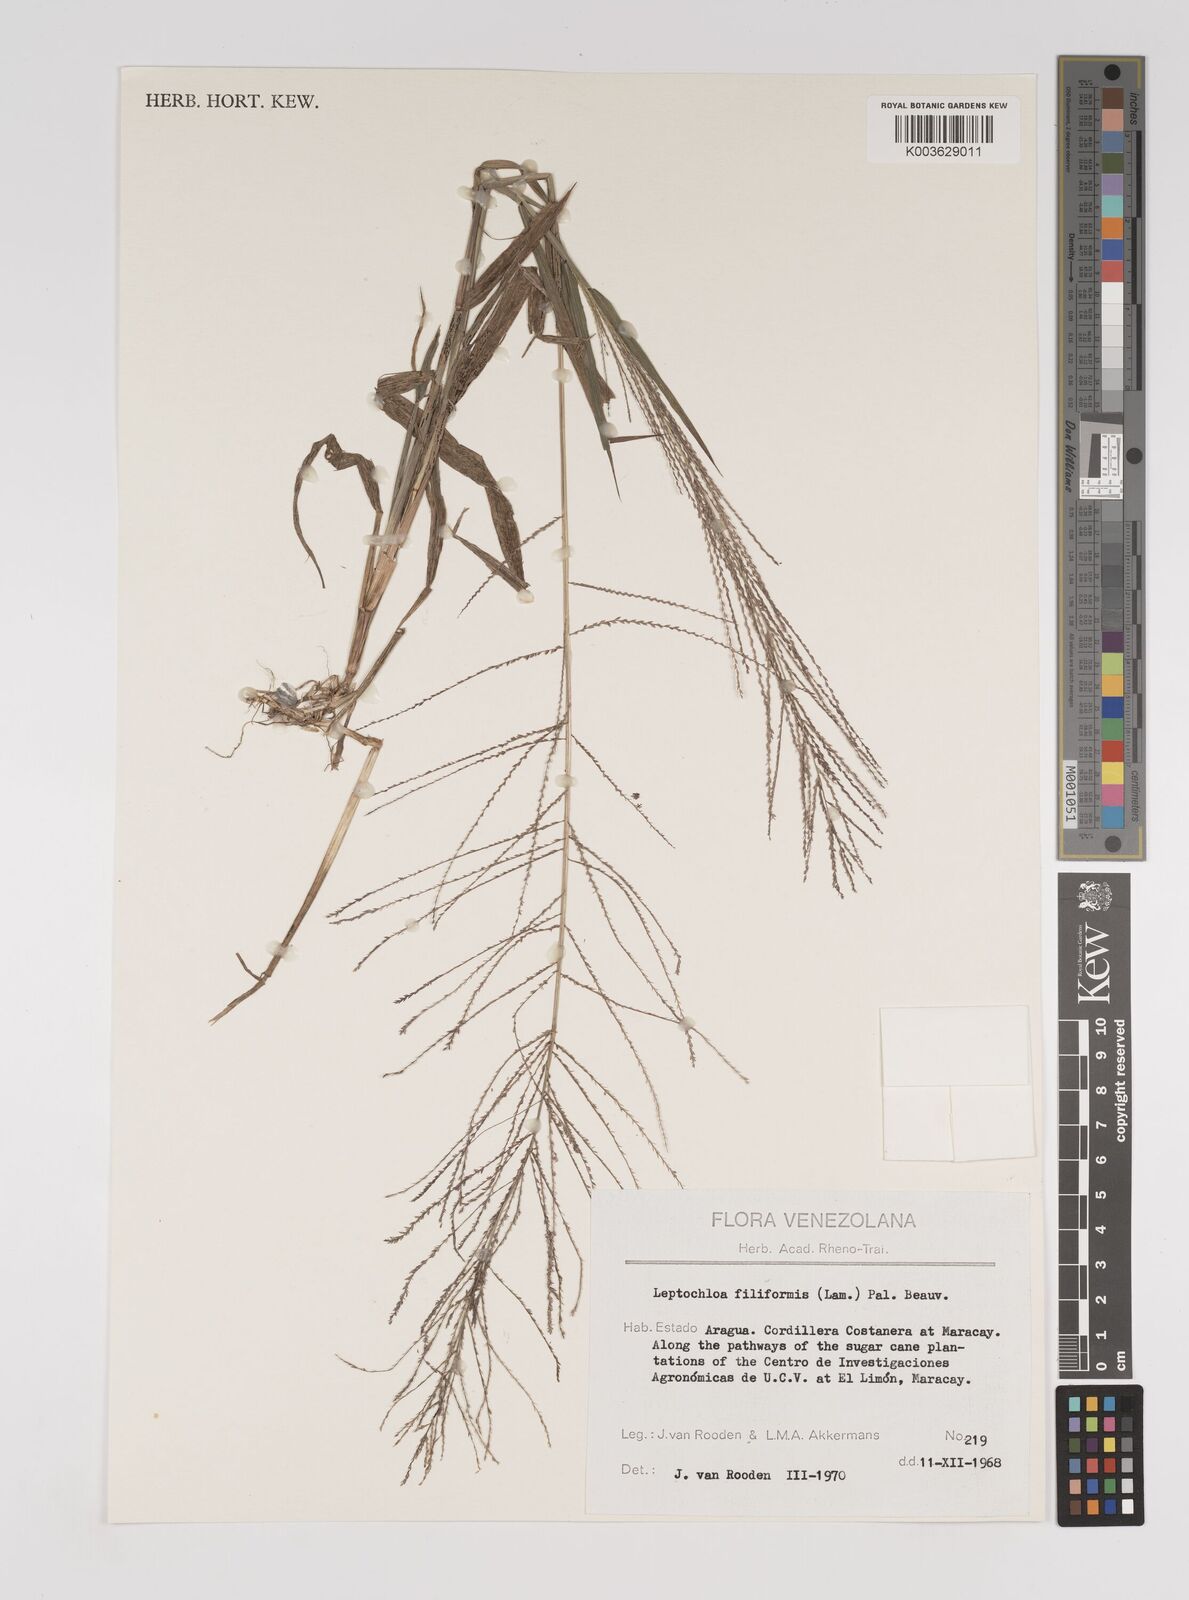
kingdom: Plantae
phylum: Tracheophyta
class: Liliopsida
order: Poales
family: Poaceae
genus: Leptochloa
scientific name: Leptochloa panicea
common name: Mucronate sprangletop
